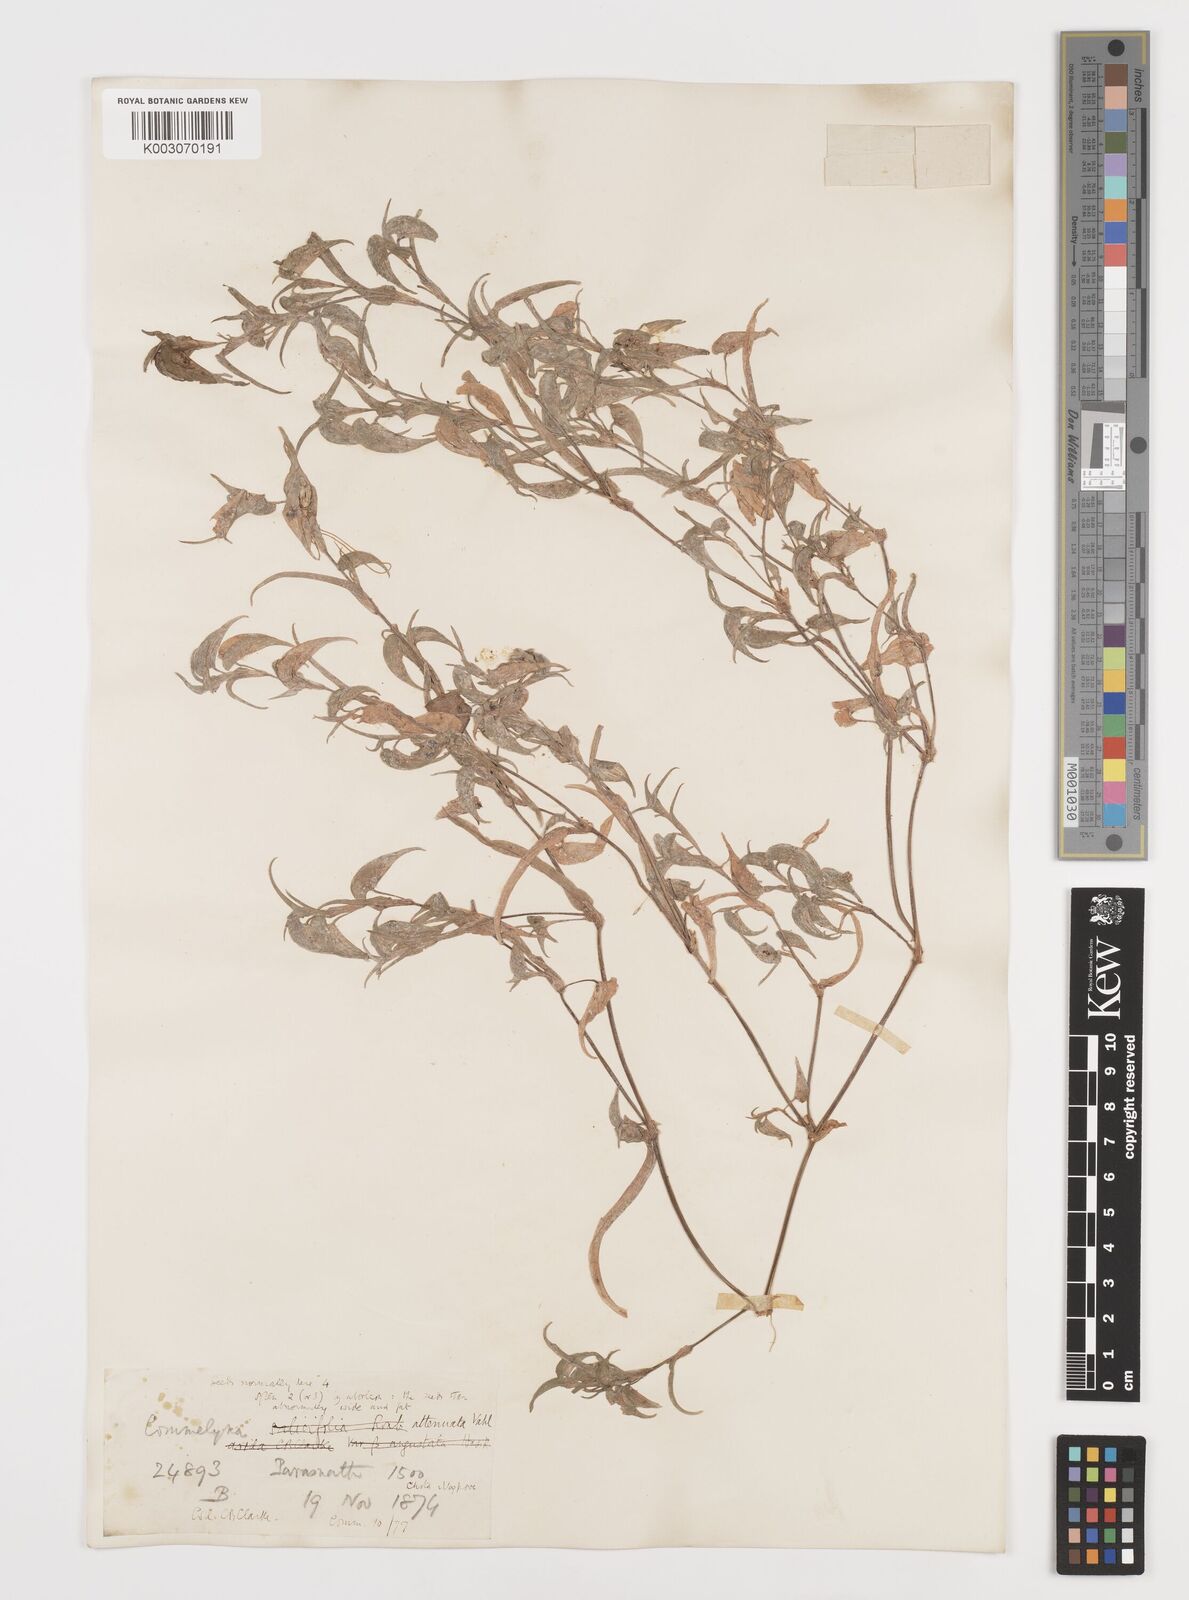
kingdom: Plantae
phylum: Tracheophyta
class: Liliopsida
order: Commelinales
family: Commelinaceae
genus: Commelina
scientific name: Commelina attenuata
